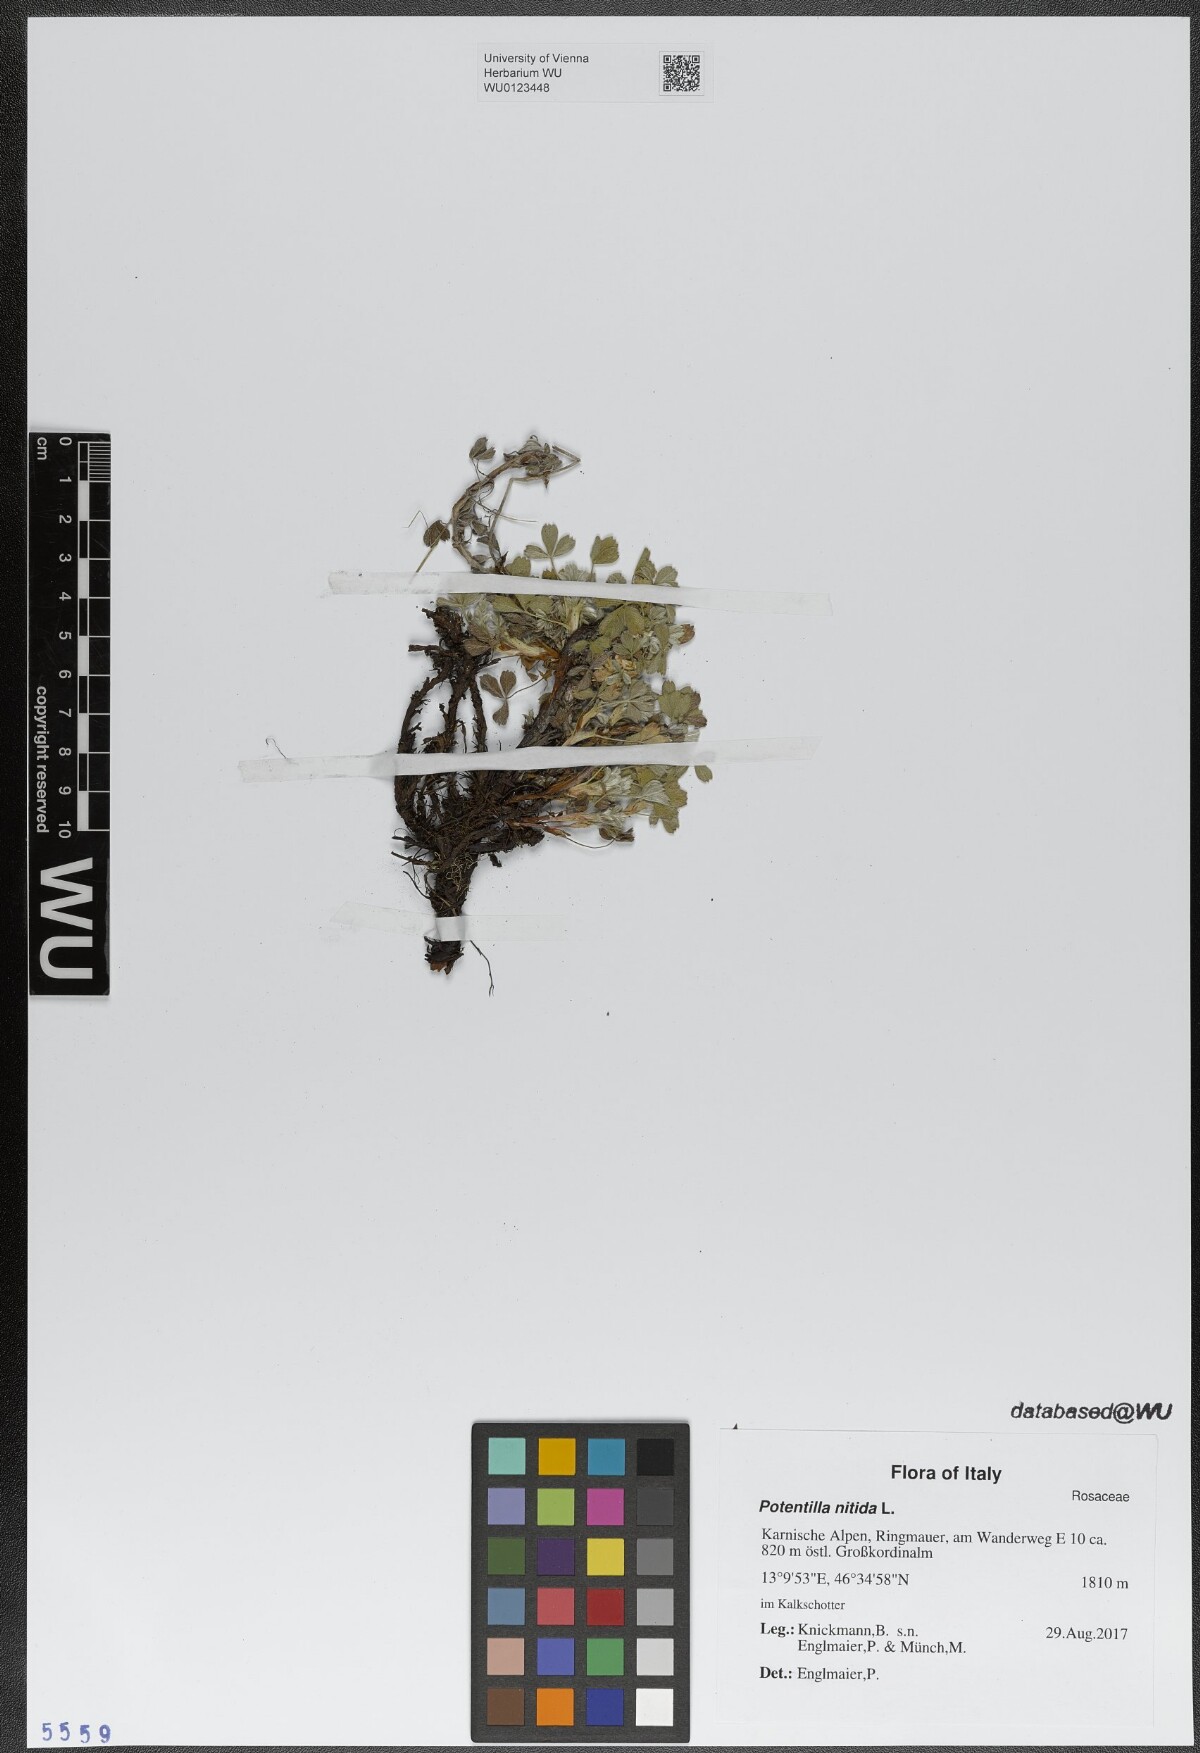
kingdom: Plantae
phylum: Tracheophyta
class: Magnoliopsida
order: Rosales
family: Rosaceae
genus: Potentilla
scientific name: Potentilla nitida
